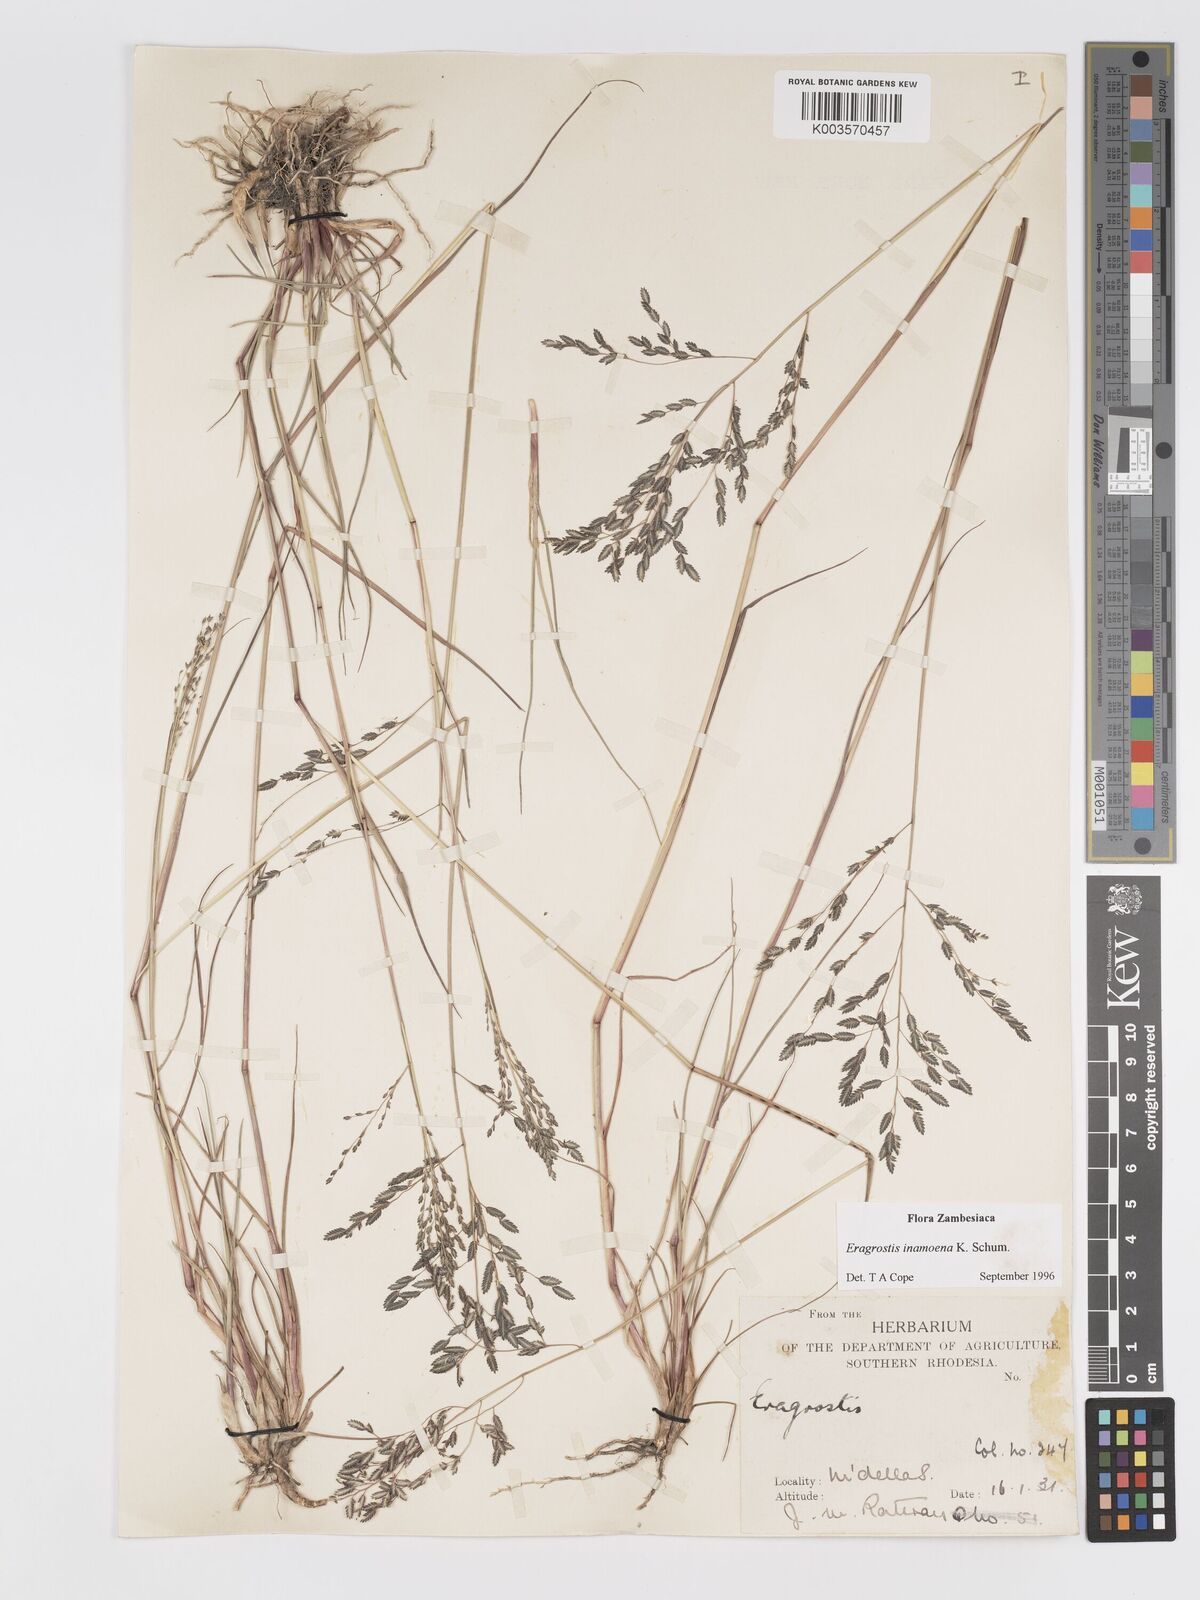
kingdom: Plantae
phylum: Tracheophyta
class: Liliopsida
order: Poales
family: Poaceae
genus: Eragrostis
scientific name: Eragrostis inamoena
